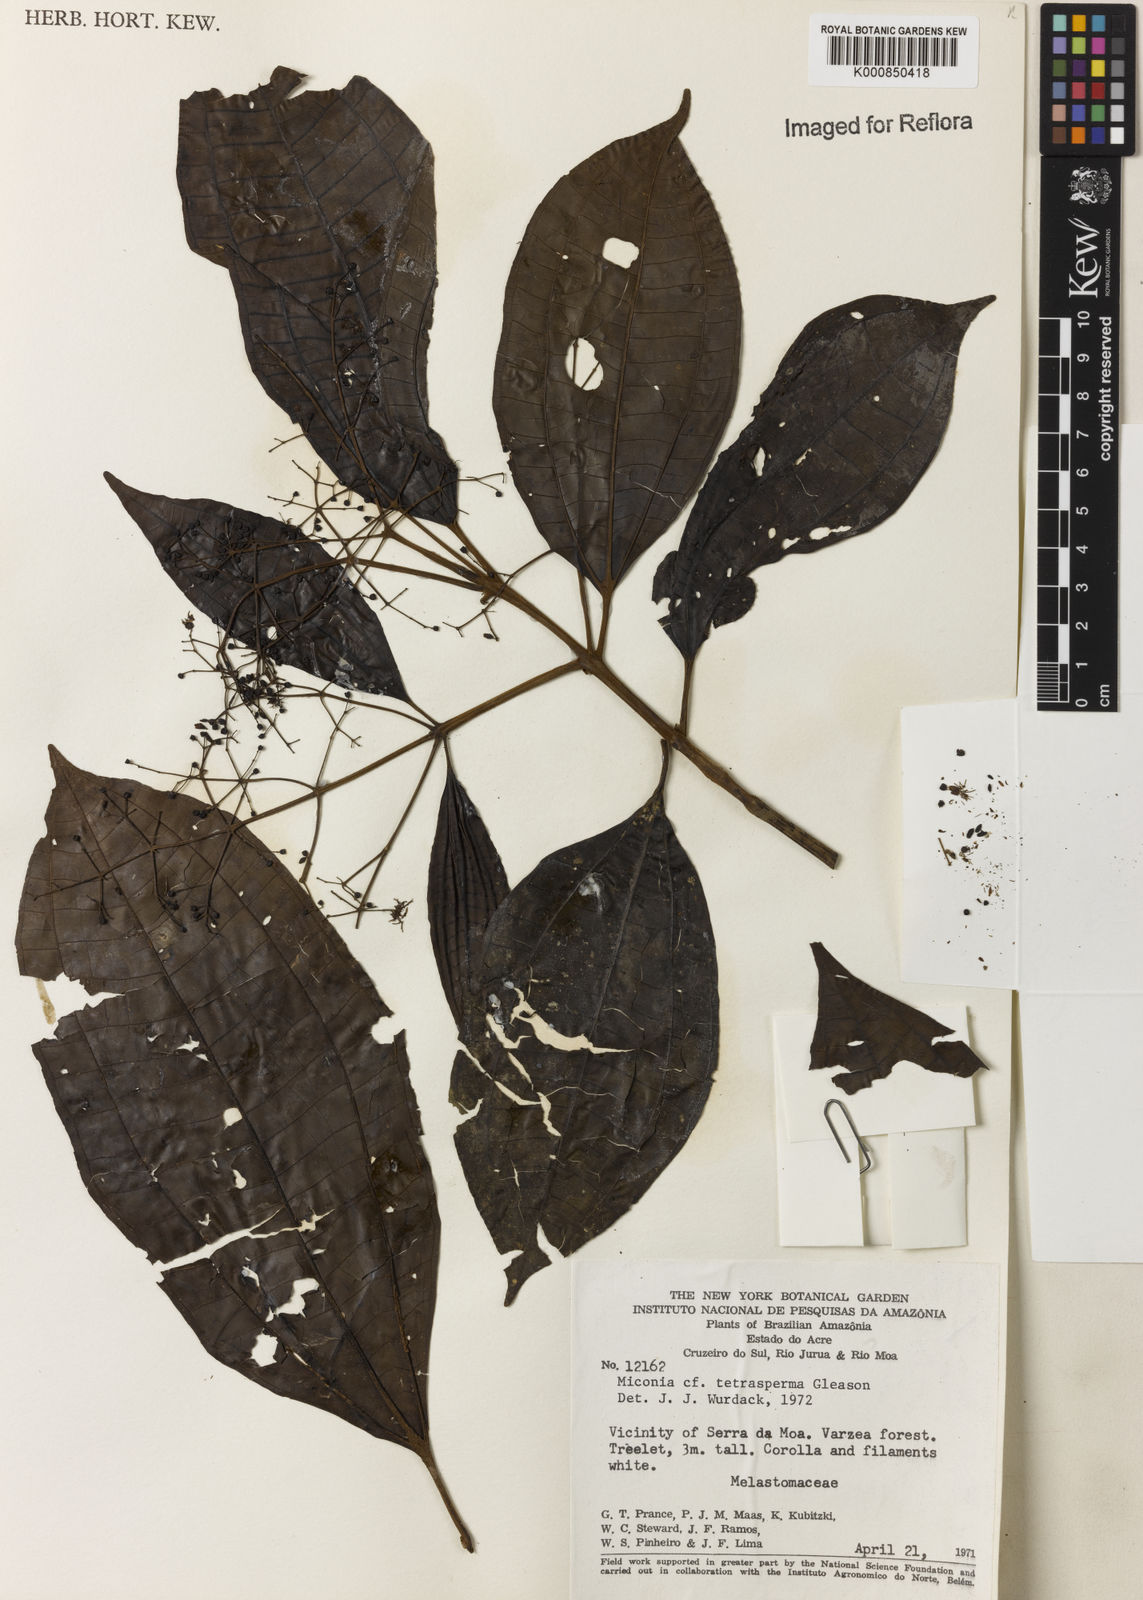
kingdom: Plantae
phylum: Tracheophyta
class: Magnoliopsida
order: Myrtales
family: Melastomataceae
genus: Miconia
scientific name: Miconia tetrasperma
